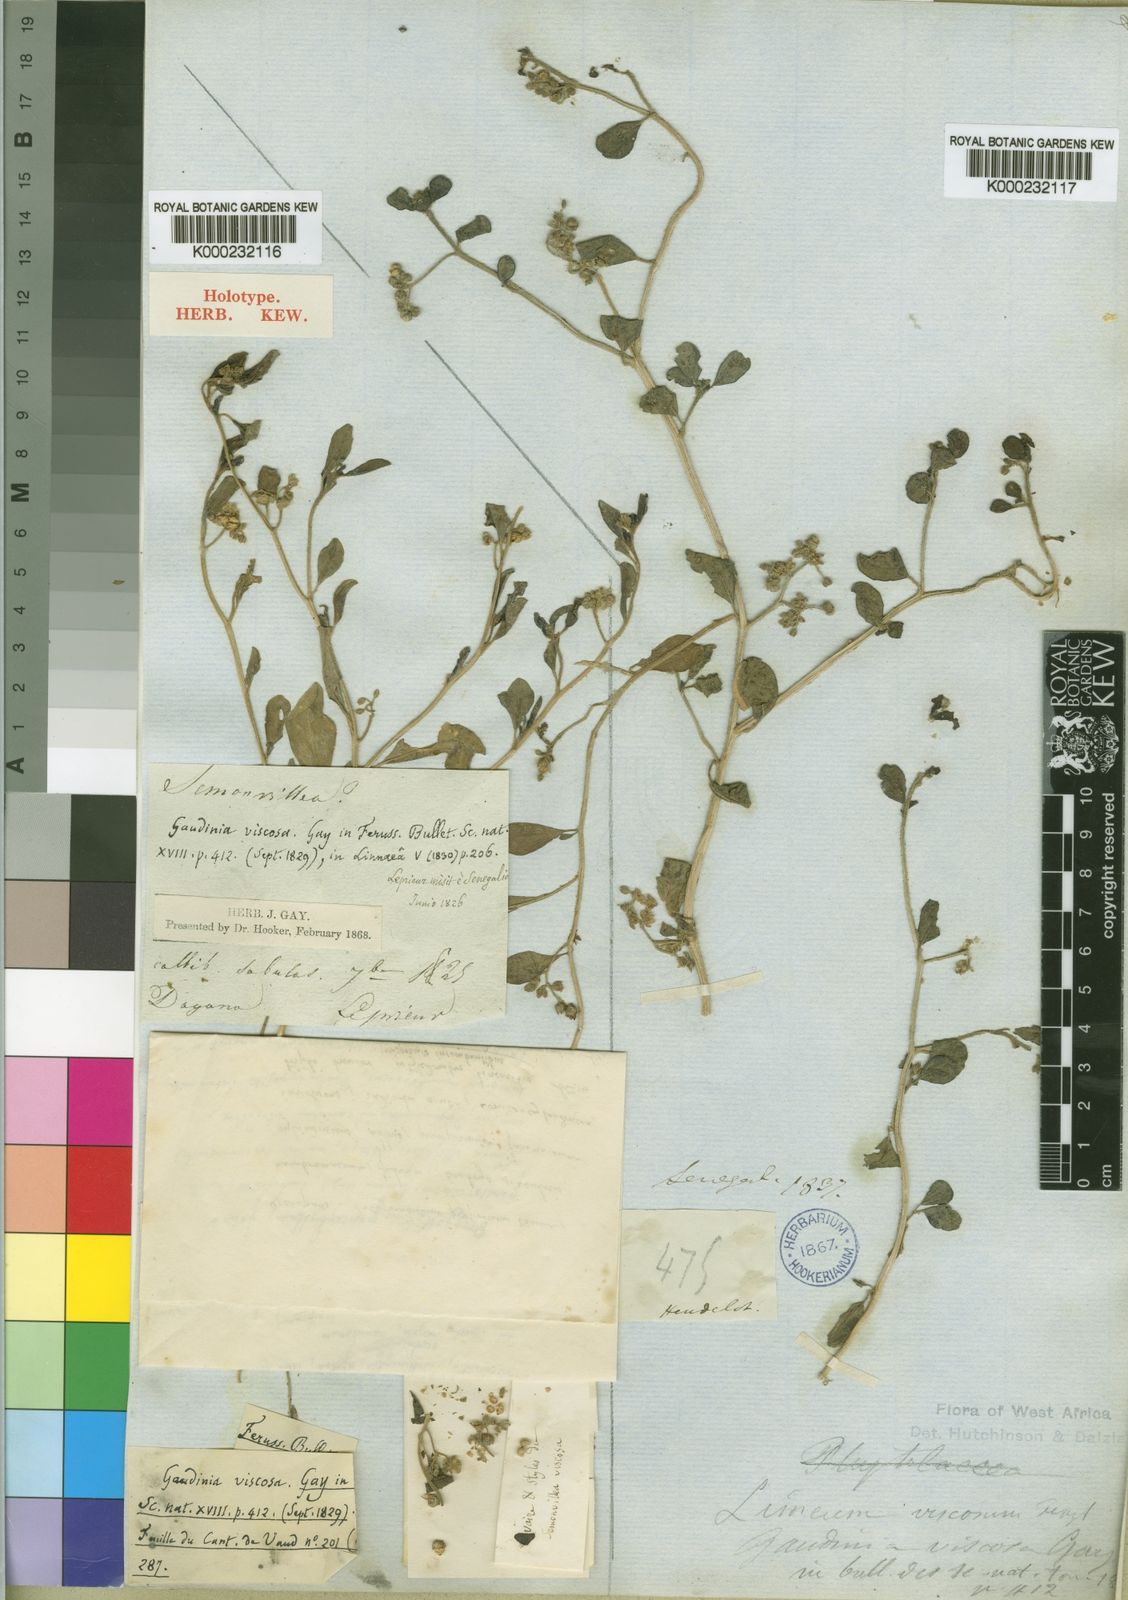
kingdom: Plantae
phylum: Tracheophyta
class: Magnoliopsida
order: Caryophyllales
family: Limeaceae
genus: Limeum
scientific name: Limeum viscosum
